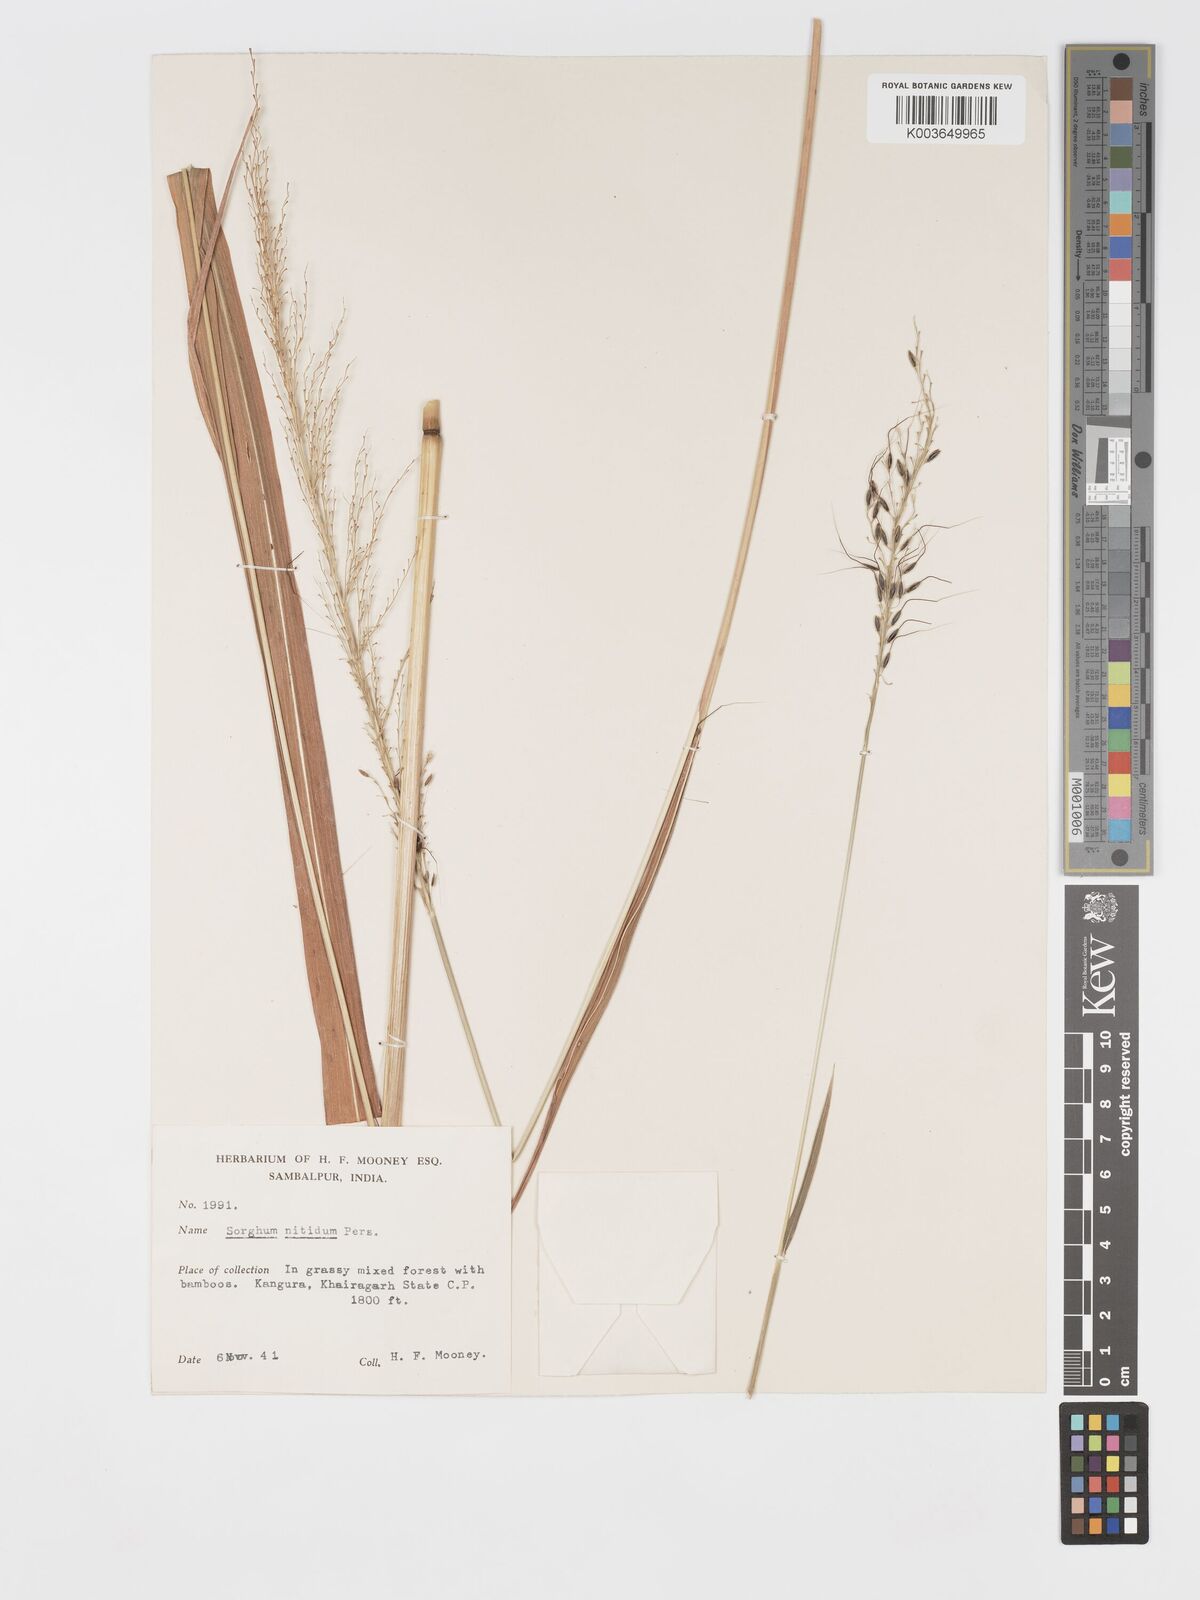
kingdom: Plantae
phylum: Tracheophyta
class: Liliopsida
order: Poales
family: Poaceae
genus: Cleistachne
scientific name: Cleistachne sorghoides
